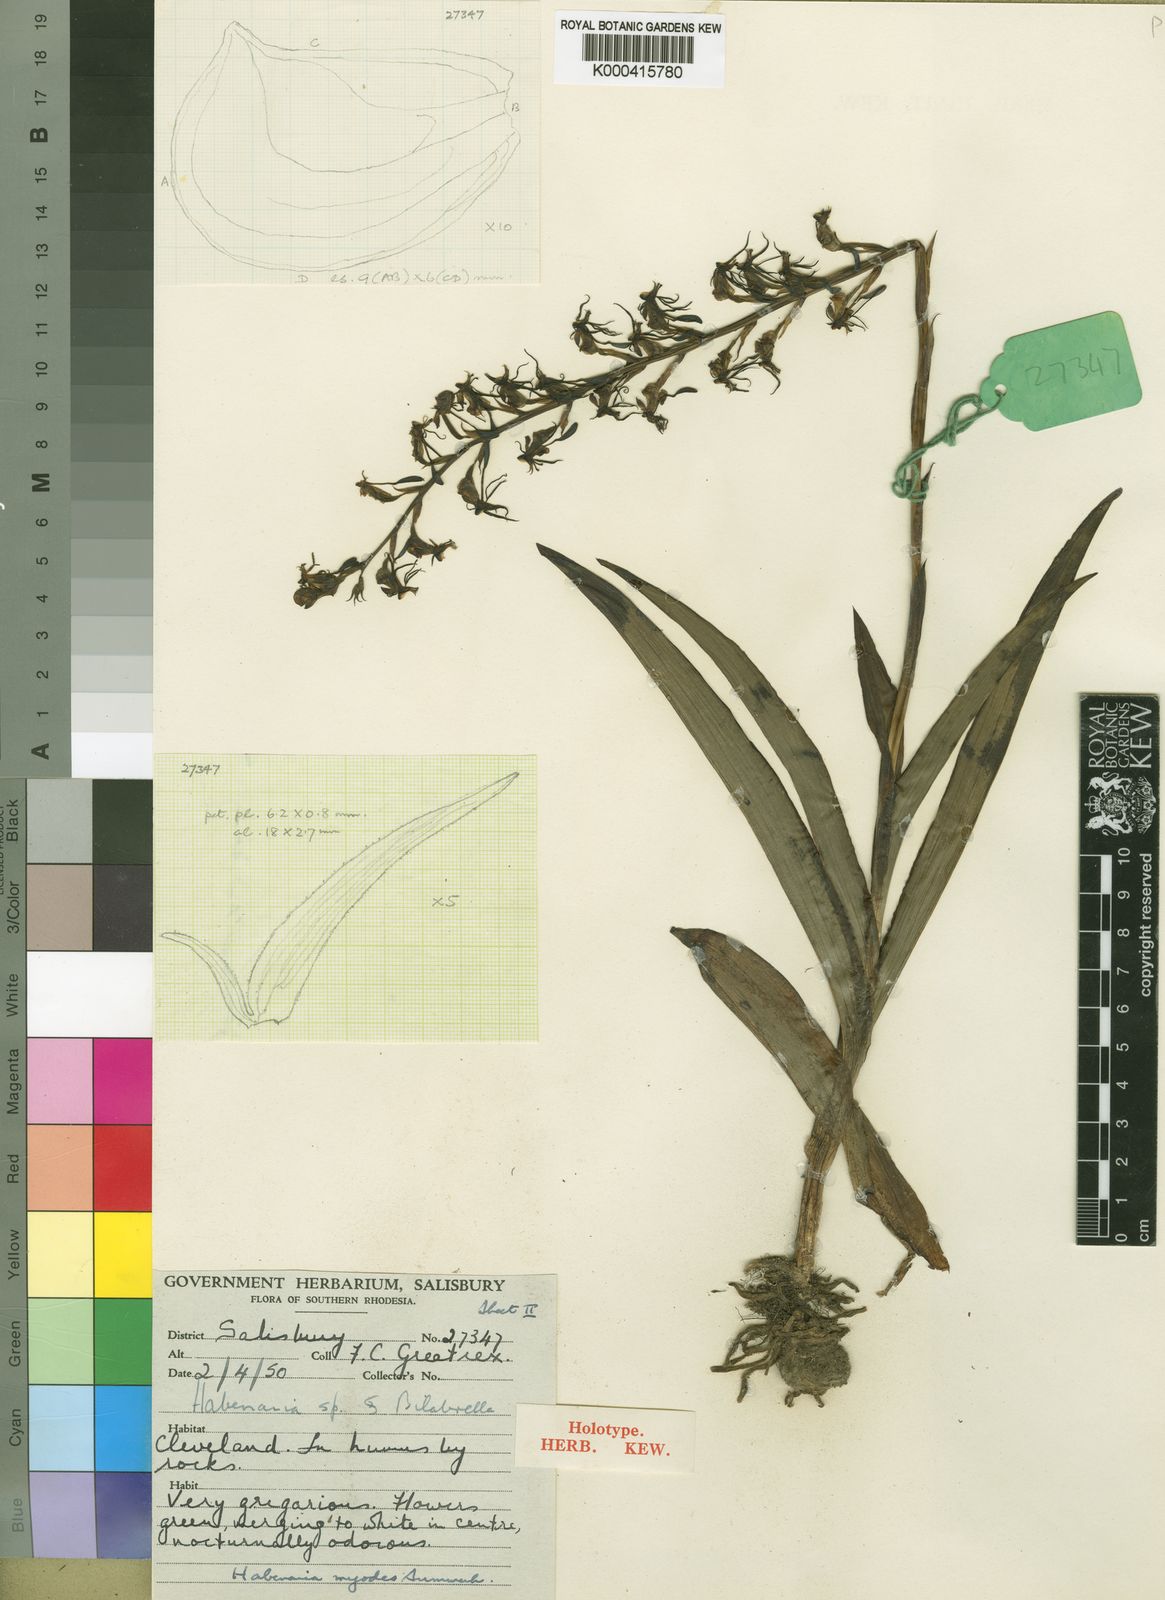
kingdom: Plantae
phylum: Tracheophyta
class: Liliopsida
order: Asparagales
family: Orchidaceae
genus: Habenaria
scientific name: Habenaria myodes
